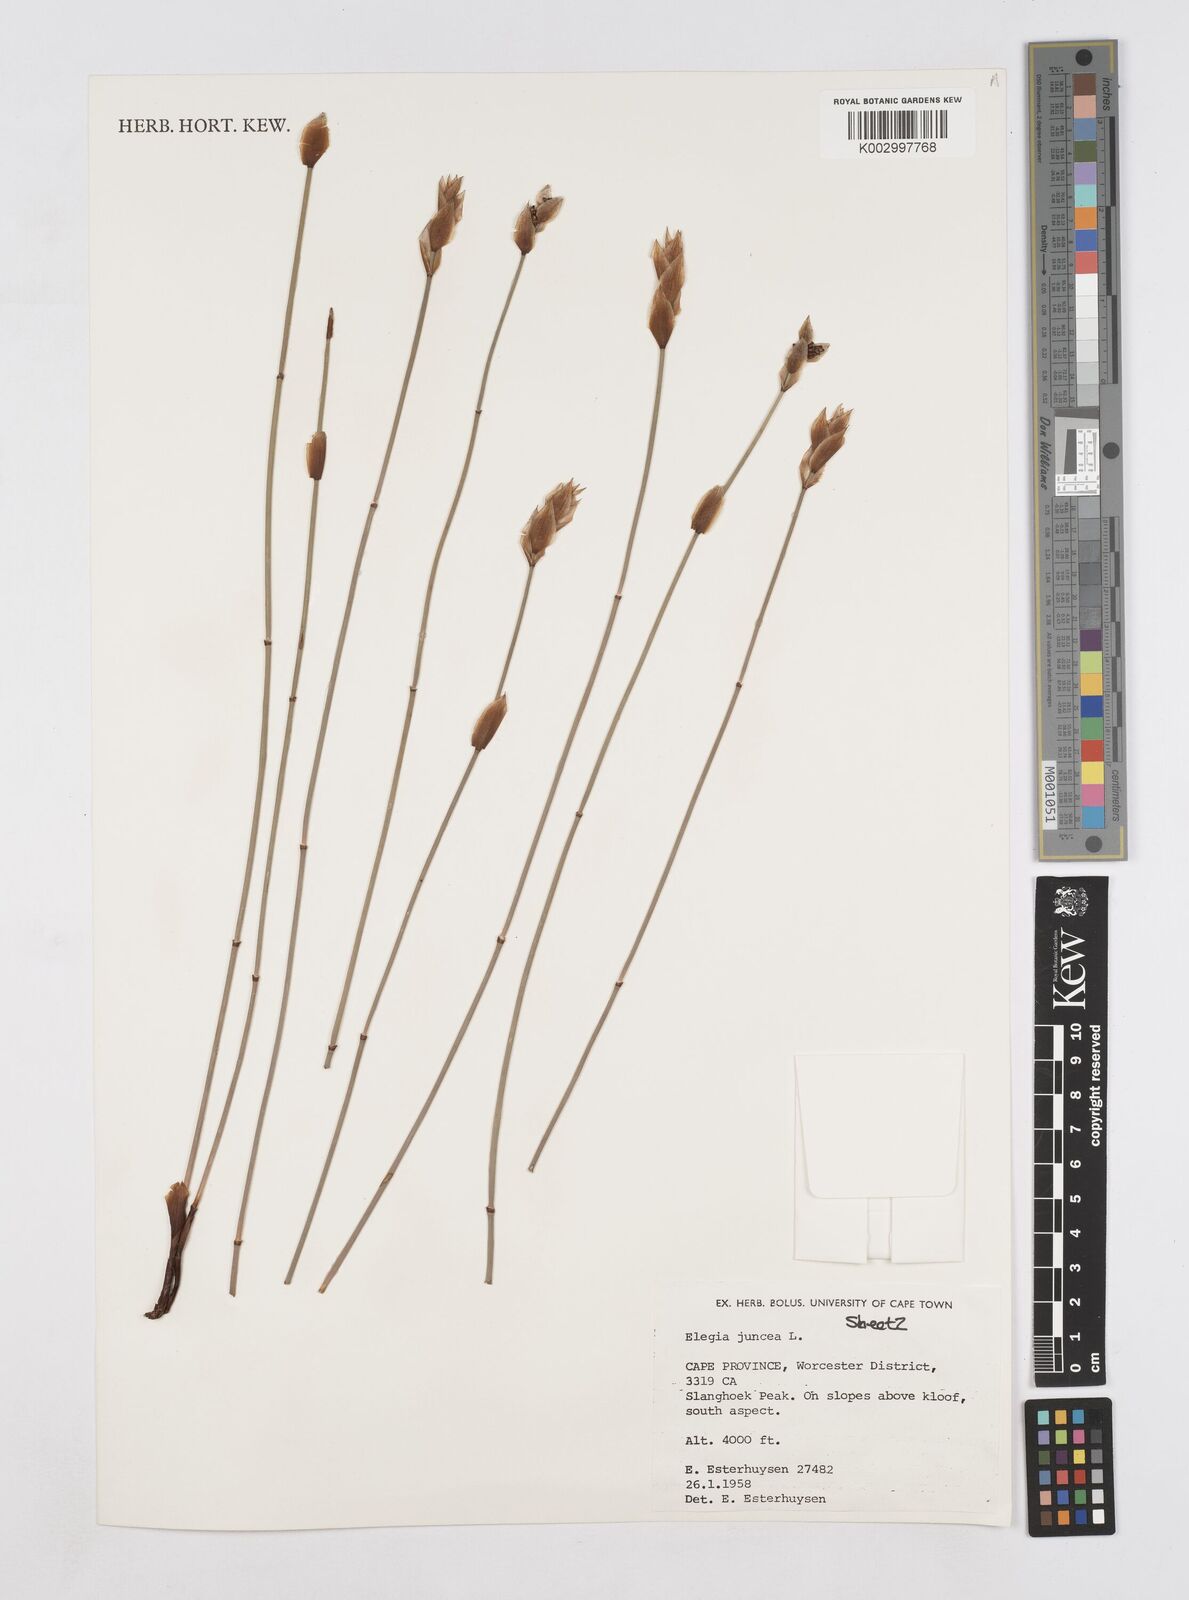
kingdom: Plantae
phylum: Tracheophyta
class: Liliopsida
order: Poales
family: Restionaceae
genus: Elegia
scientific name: Elegia juncea
